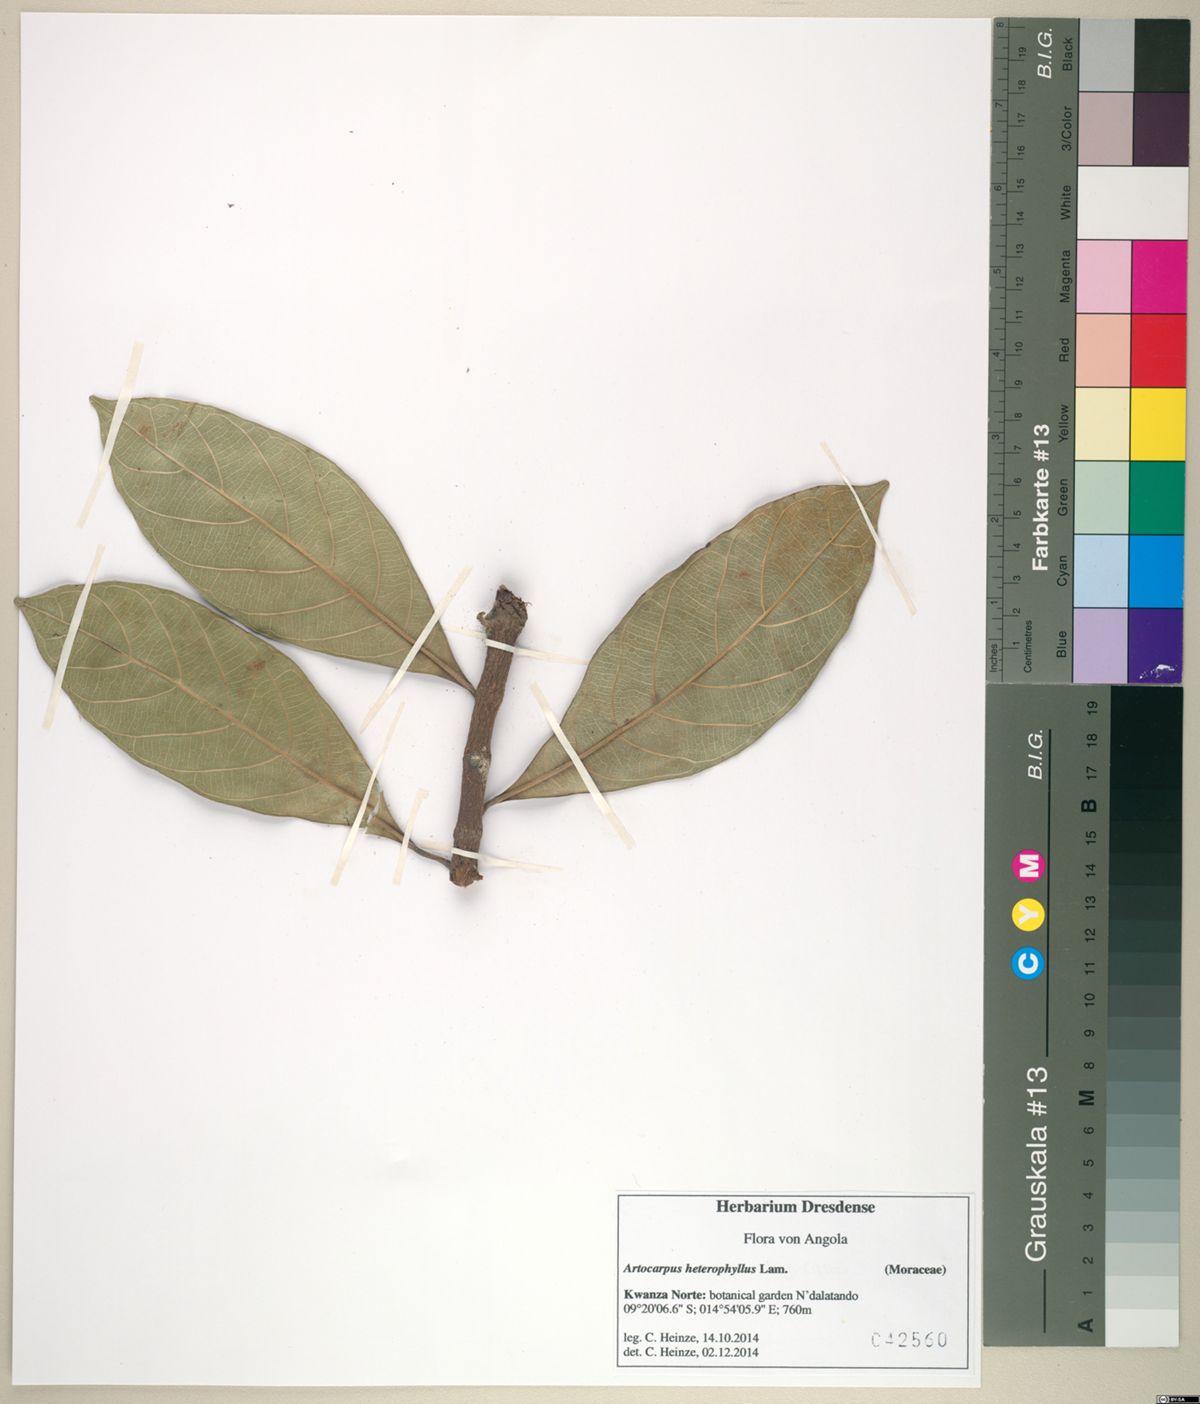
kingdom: Plantae
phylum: Tracheophyta
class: Magnoliopsida
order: Rosales
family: Moraceae
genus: Artocarpus
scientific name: Artocarpus heterophyllus
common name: Jackfruit
